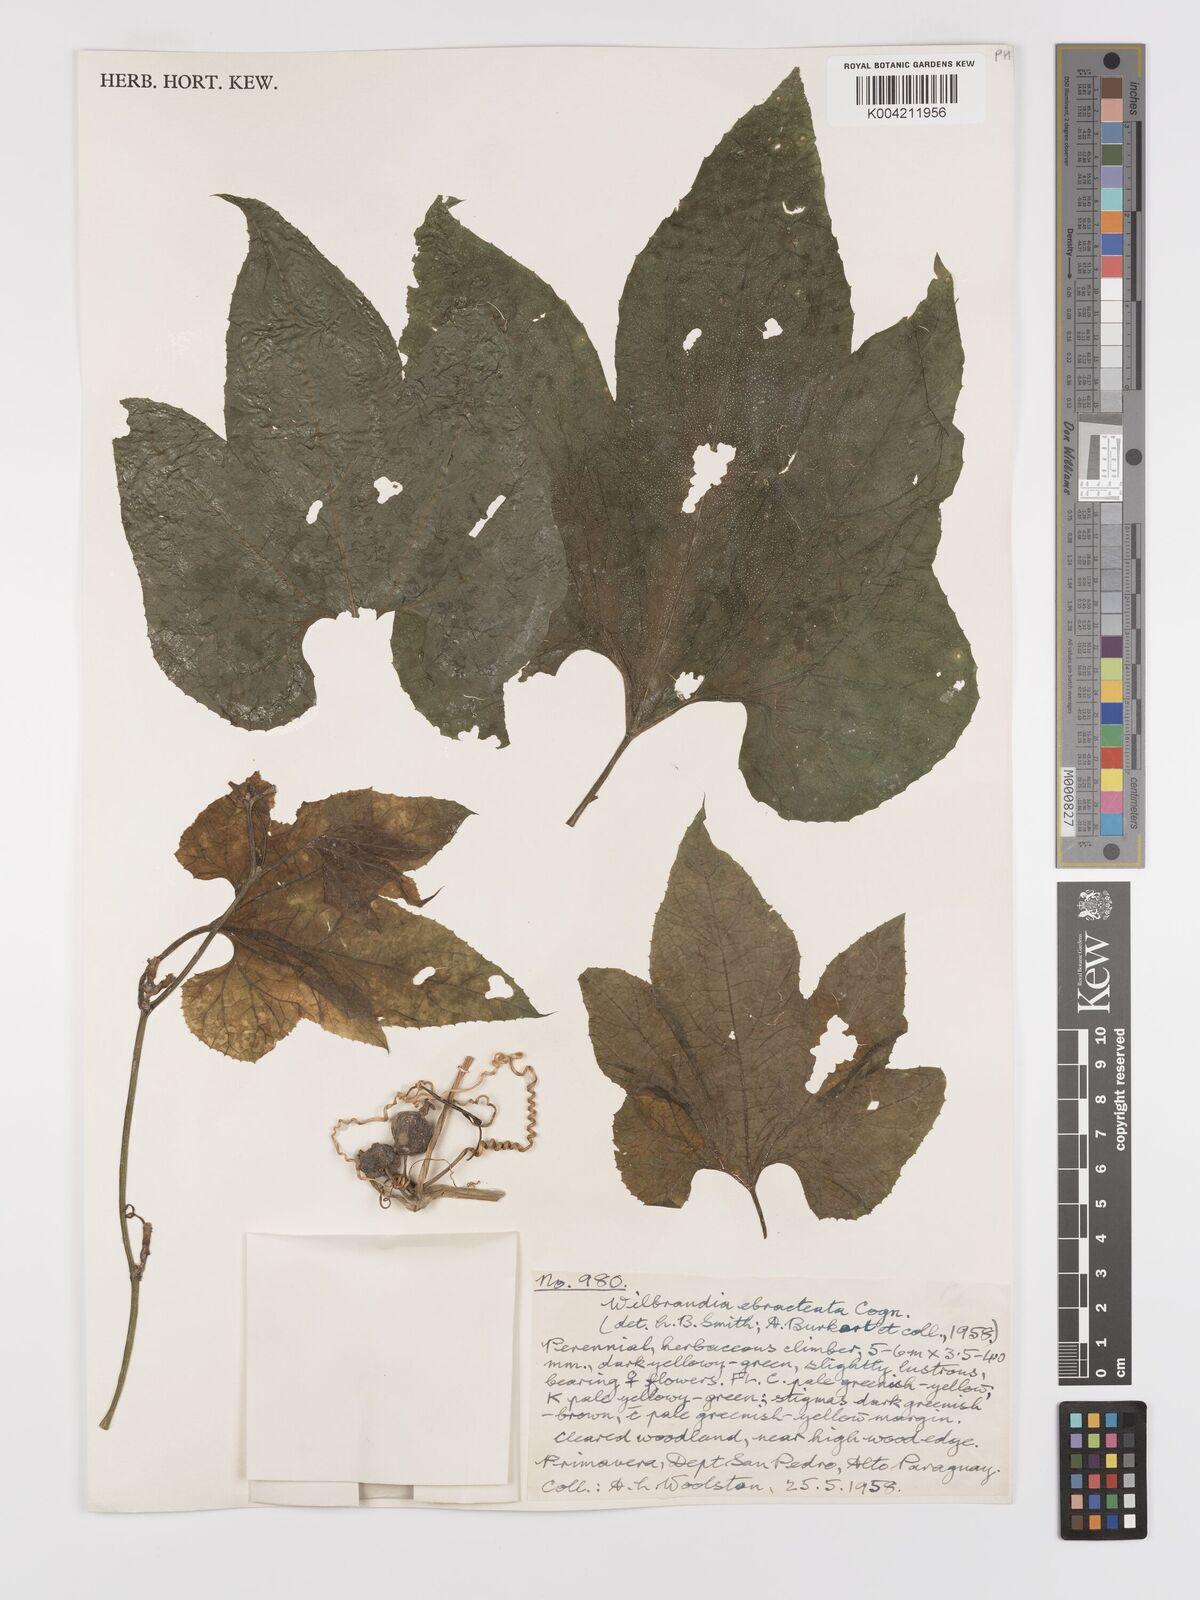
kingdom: Plantae
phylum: Tracheophyta
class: Magnoliopsida
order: Cucurbitales
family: Cucurbitaceae
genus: Wilbrandia
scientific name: Wilbrandia ebracteata
